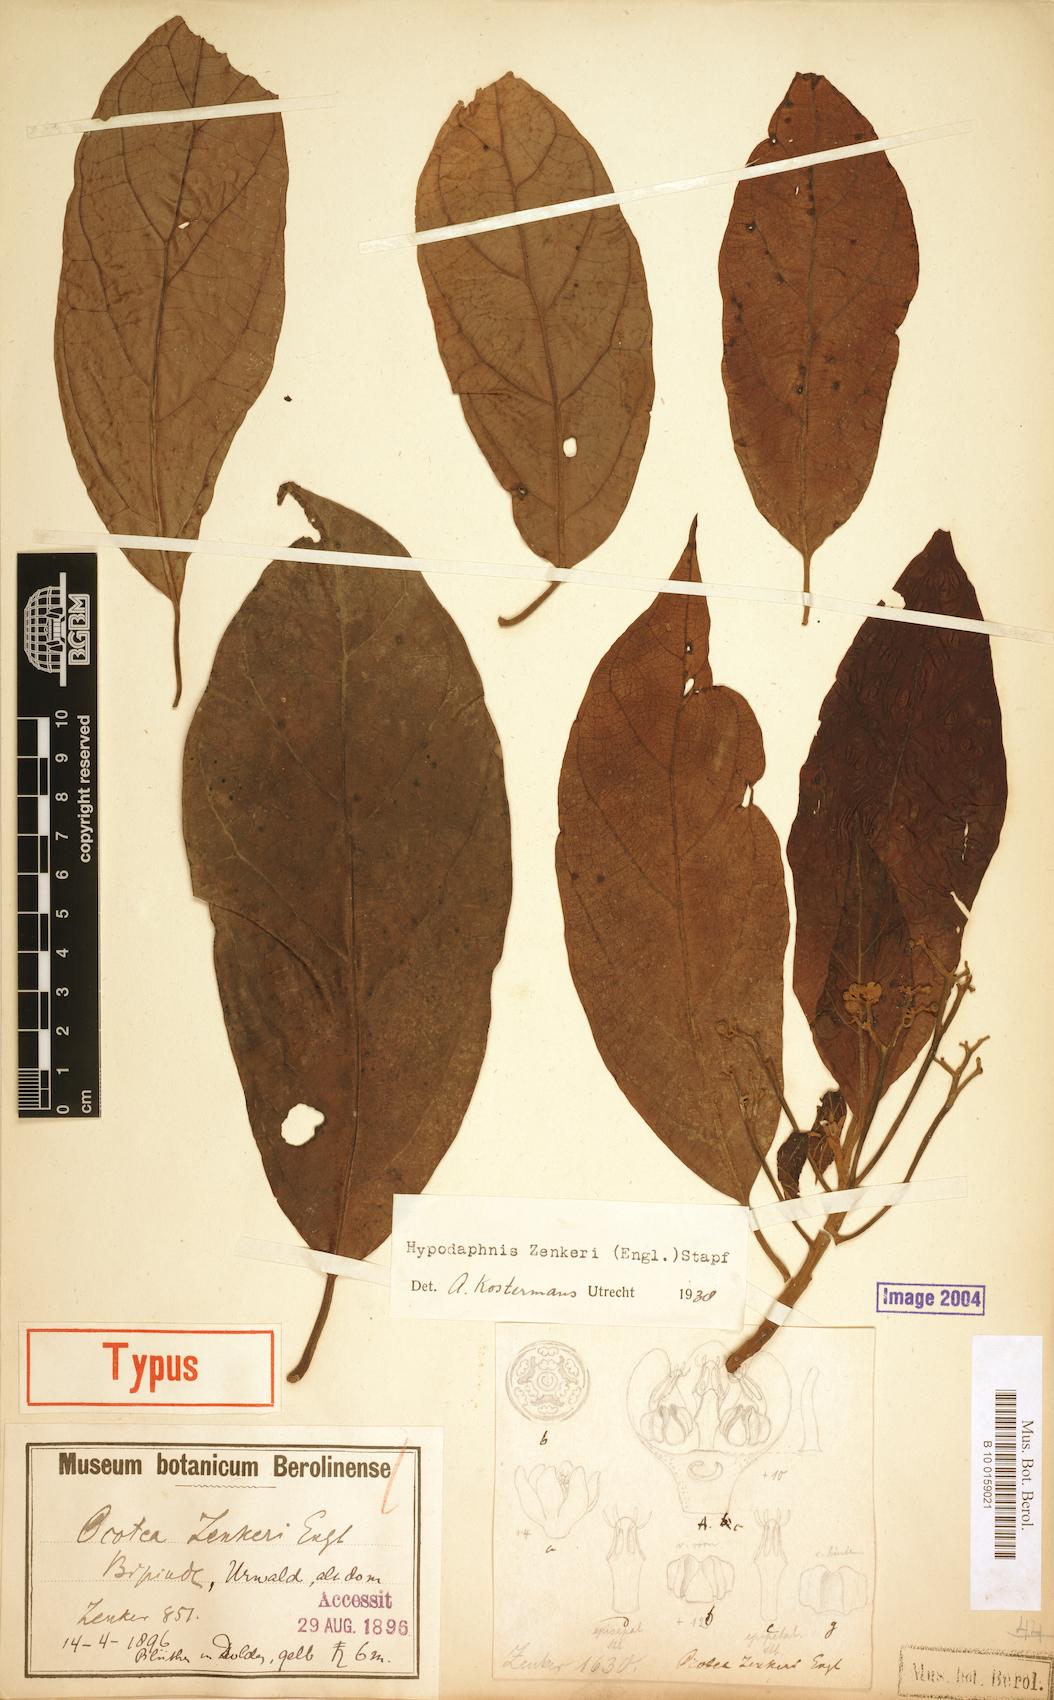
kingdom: Plantae
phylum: Tracheophyta
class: Magnoliopsida
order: Laurales
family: Lauraceae
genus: Hypodaphnis
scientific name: Hypodaphnis zenkeri
